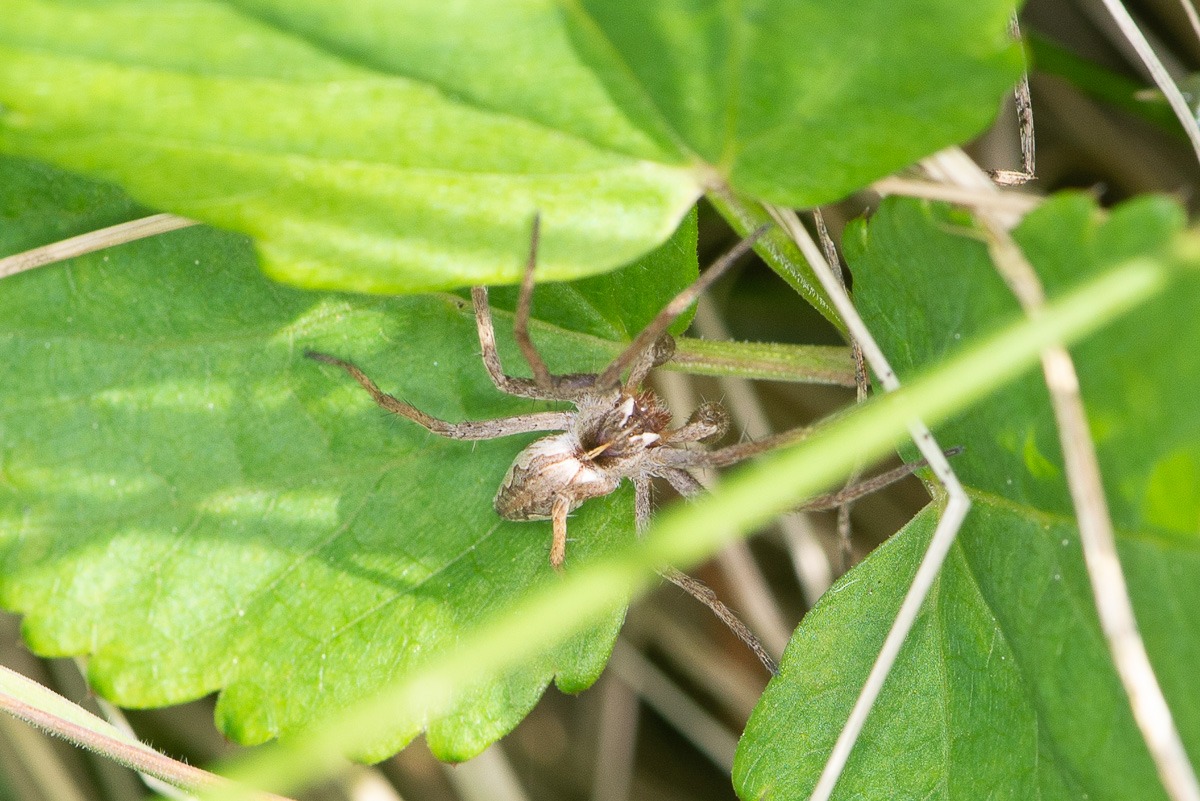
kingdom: Animalia
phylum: Arthropoda
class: Arachnida
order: Araneae
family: Pisauridae
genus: Pisaura
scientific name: Pisaura mirabilis
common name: Almindelig rovedderkop
